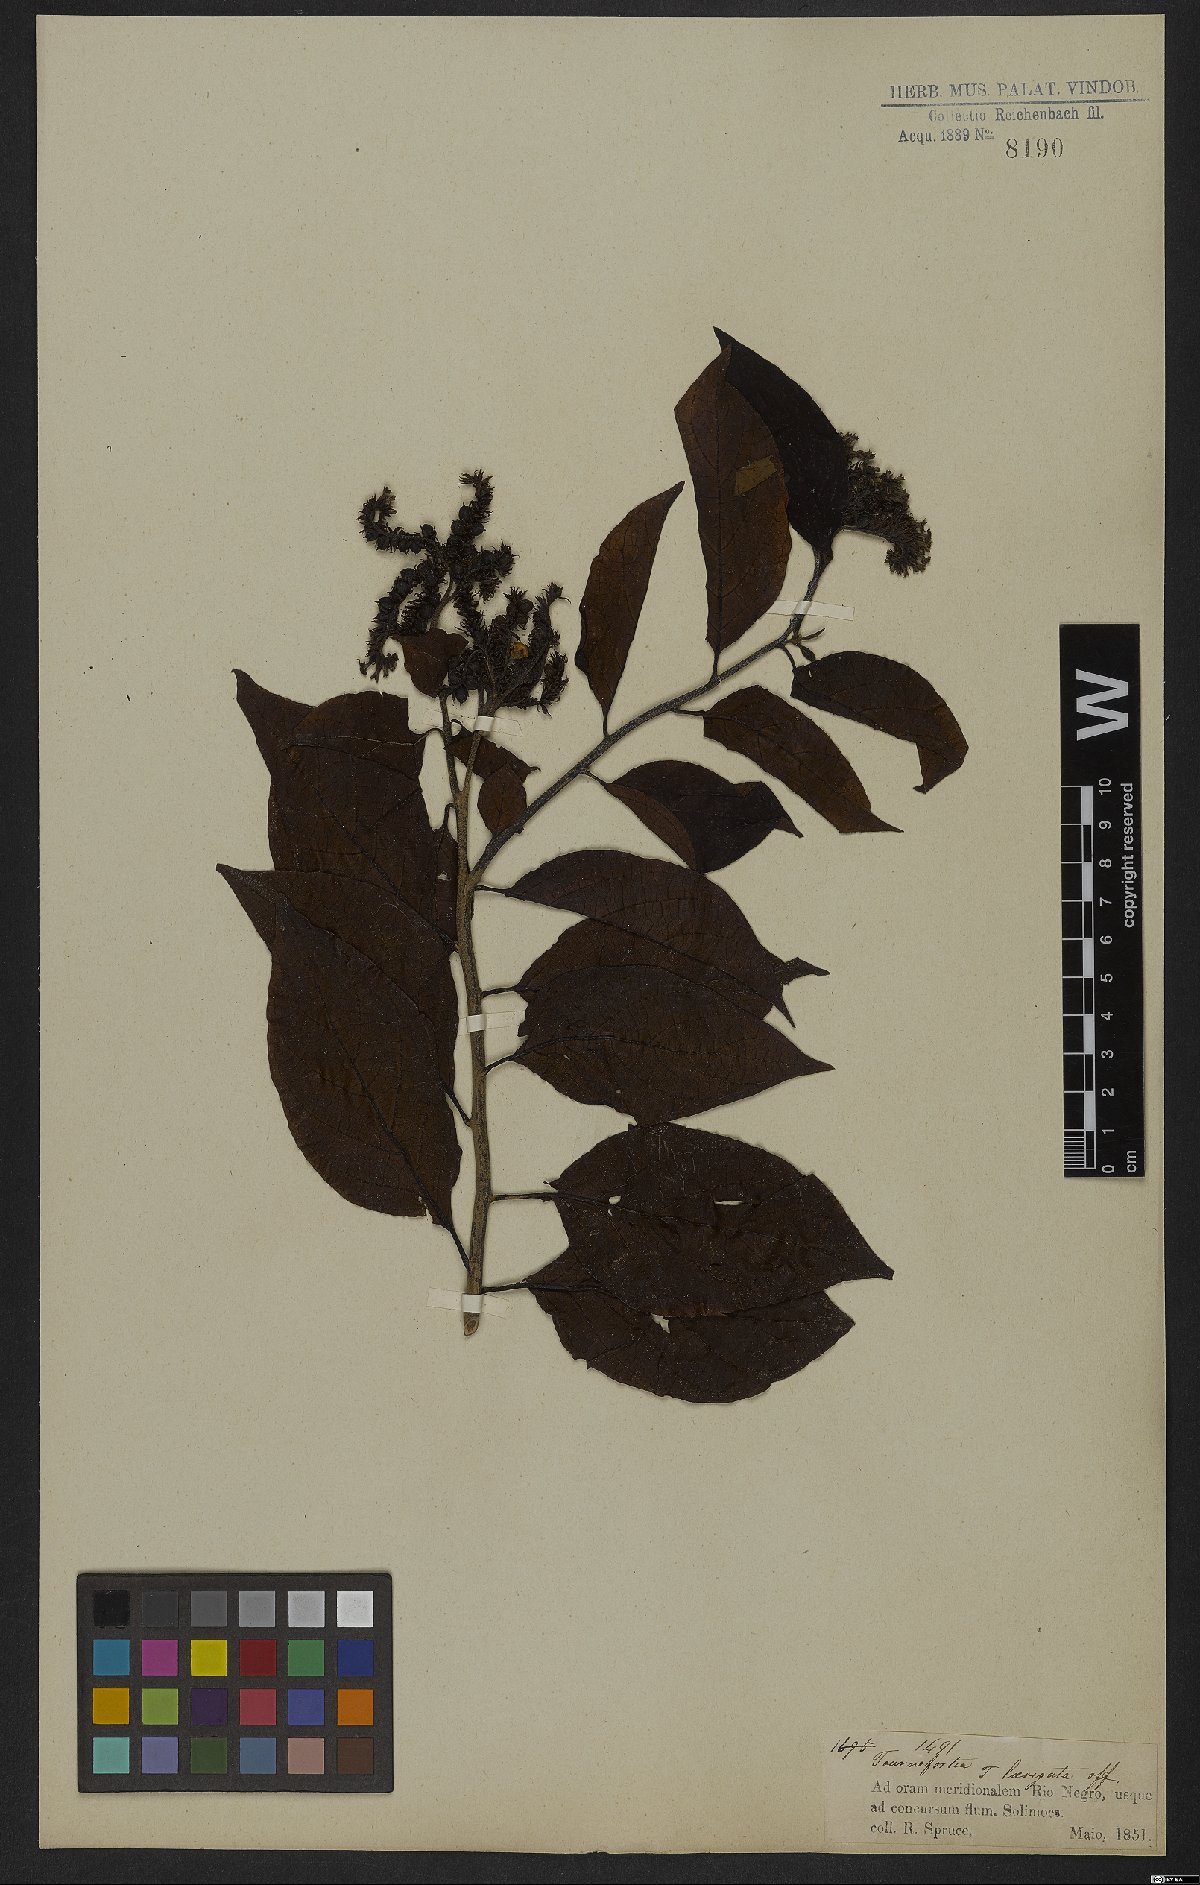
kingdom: Plantae
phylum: Tracheophyta
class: Magnoliopsida
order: Boraginales
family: Heliotropiaceae
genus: Heliotropium
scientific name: Heliotropium verdcourtii
